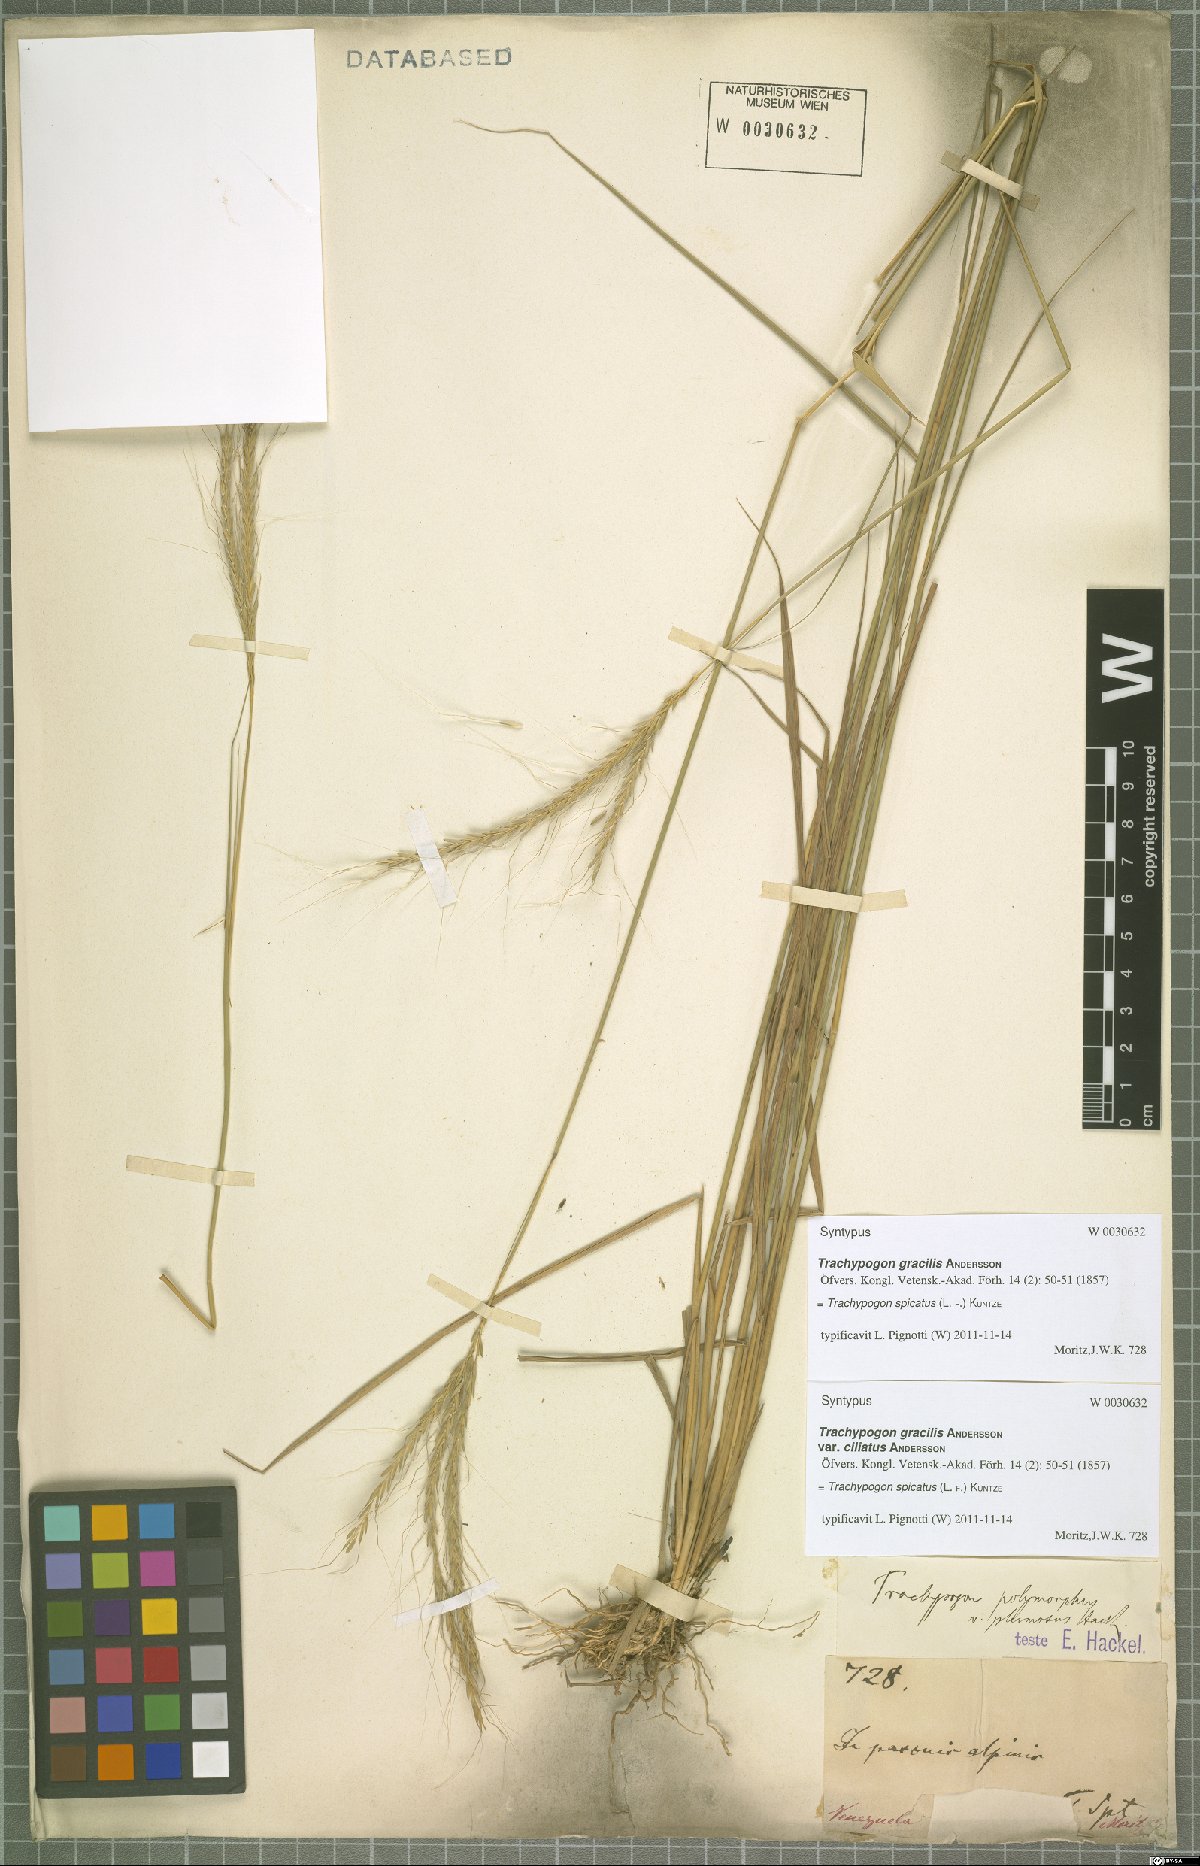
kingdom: Plantae
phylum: Tracheophyta
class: Liliopsida
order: Poales
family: Poaceae
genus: Trachypogon
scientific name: Trachypogon spicatus
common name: Crinkle-awn
